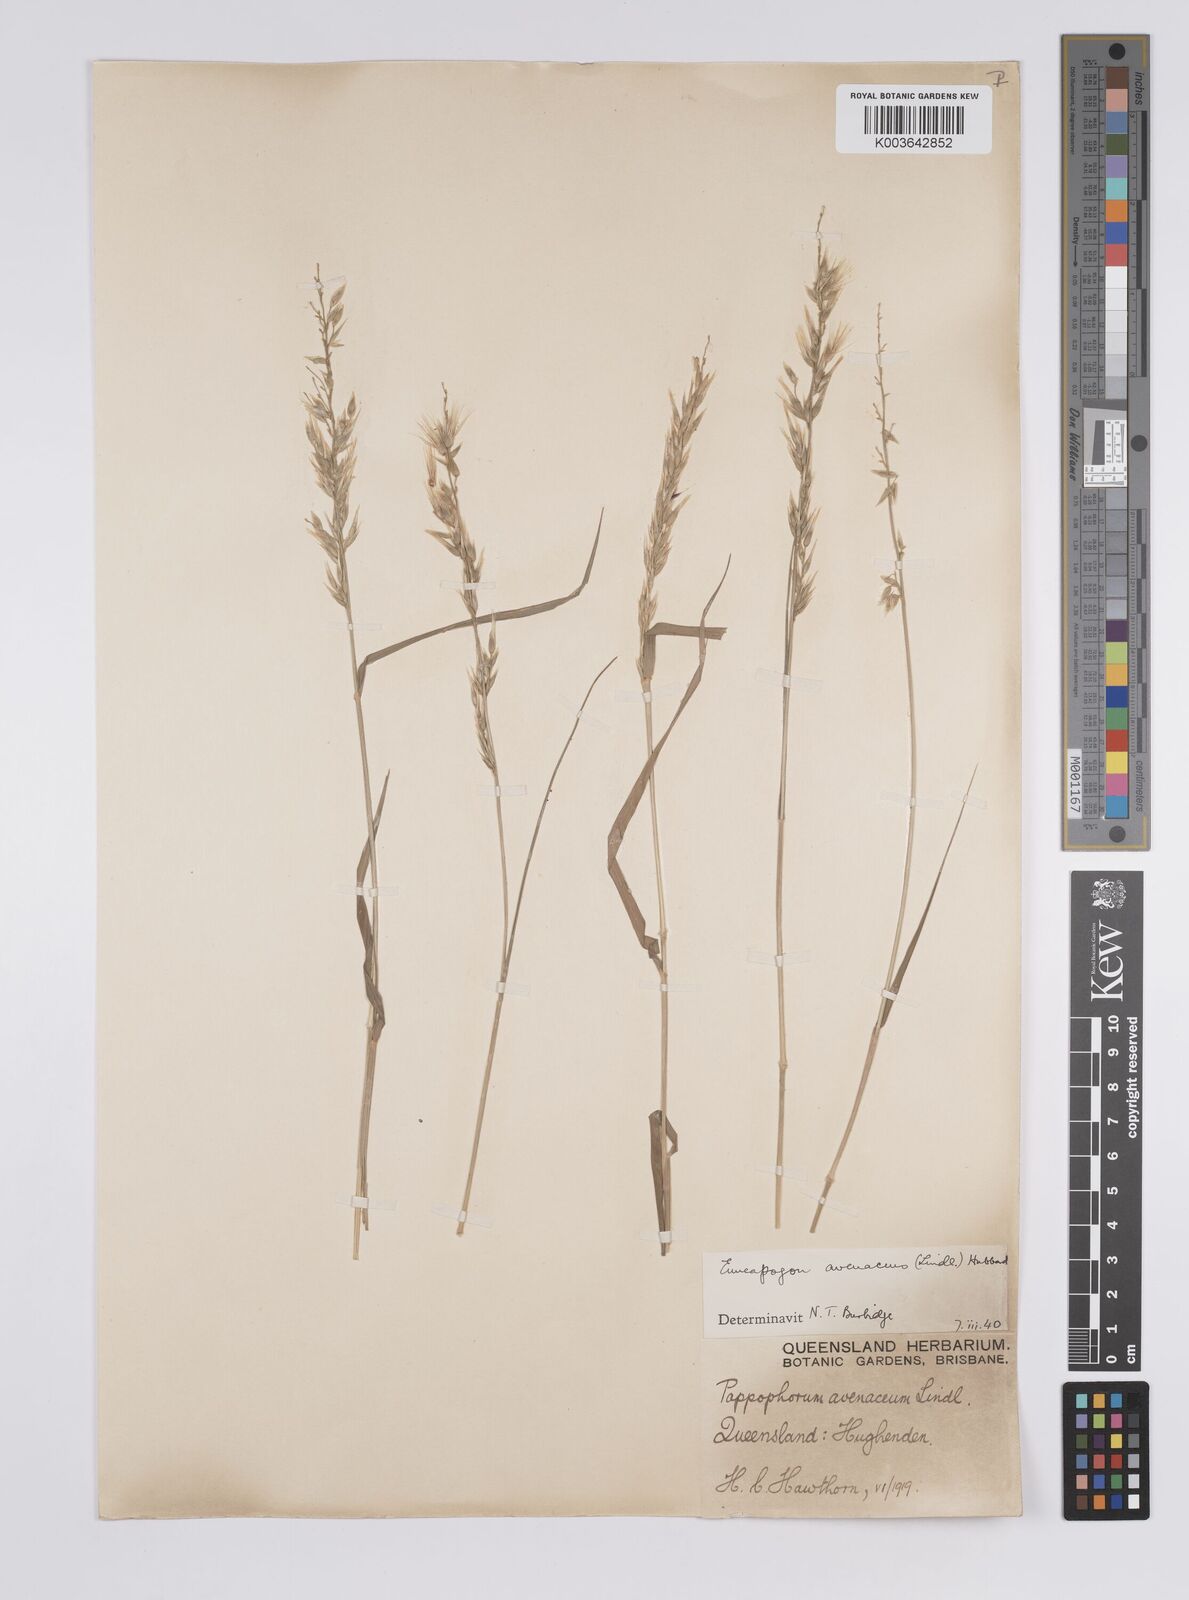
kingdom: Plantae
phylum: Tracheophyta
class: Liliopsida
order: Poales
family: Poaceae
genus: Enneapogon
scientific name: Enneapogon avenaceus
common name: Hairy oat grass
